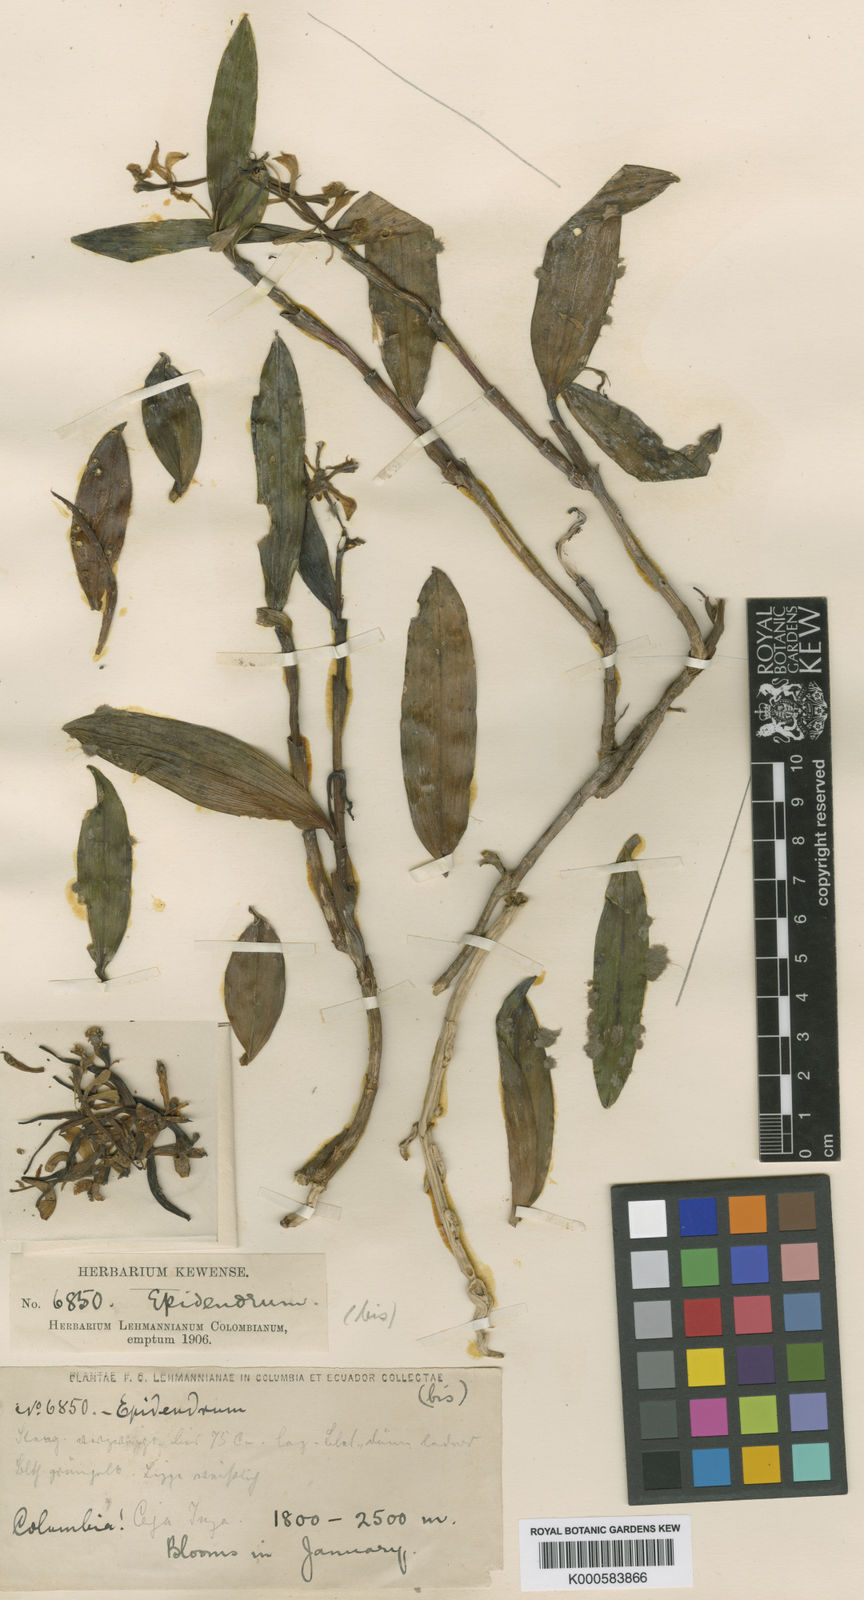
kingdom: Plantae
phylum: Tracheophyta
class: Liliopsida
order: Asparagales
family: Orchidaceae
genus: Epidendrum
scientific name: Epidendrum oligophyllum
